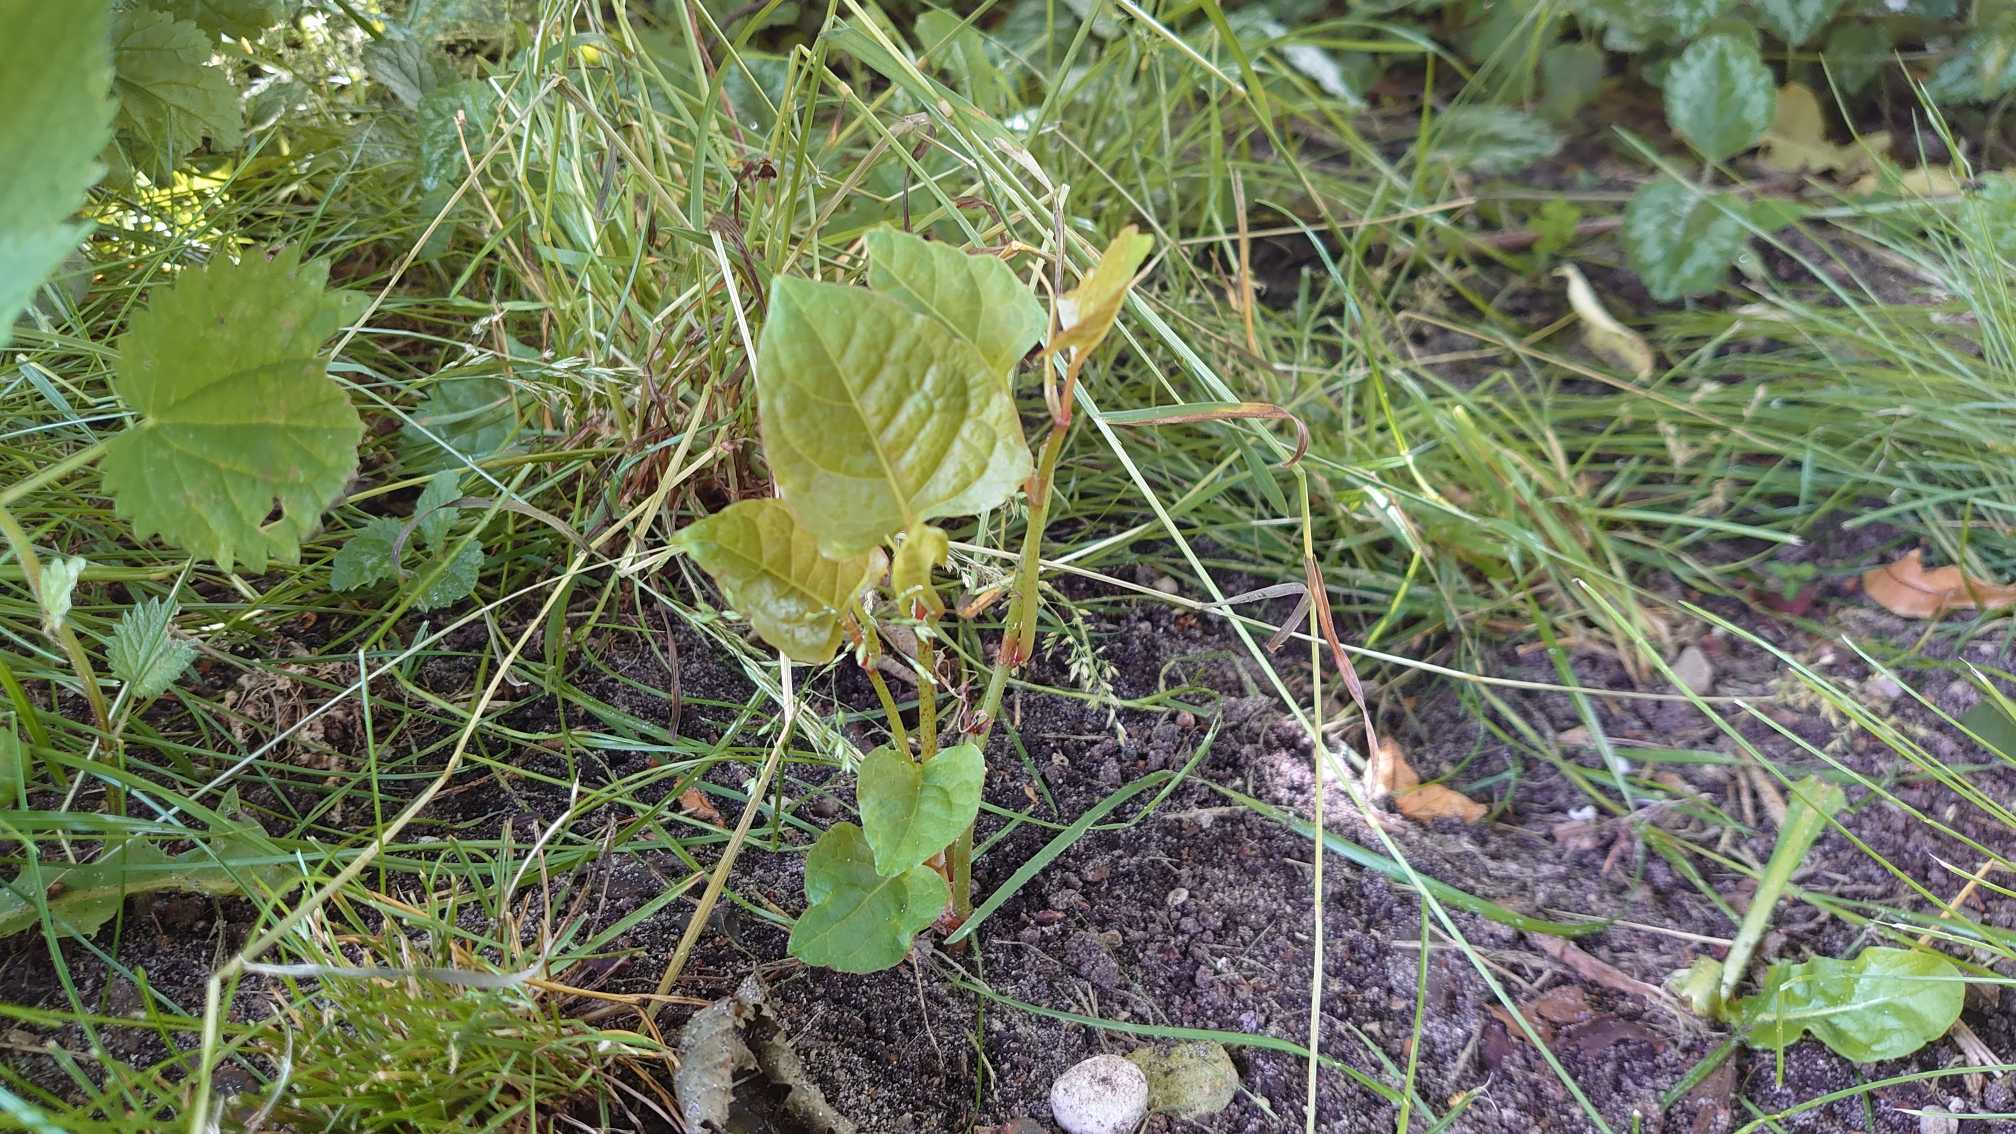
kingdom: Plantae
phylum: Tracheophyta
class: Magnoliopsida
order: Caryophyllales
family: Polygonaceae
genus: Reynoutria
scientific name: Reynoutria japonica
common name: Japan-pileurt
